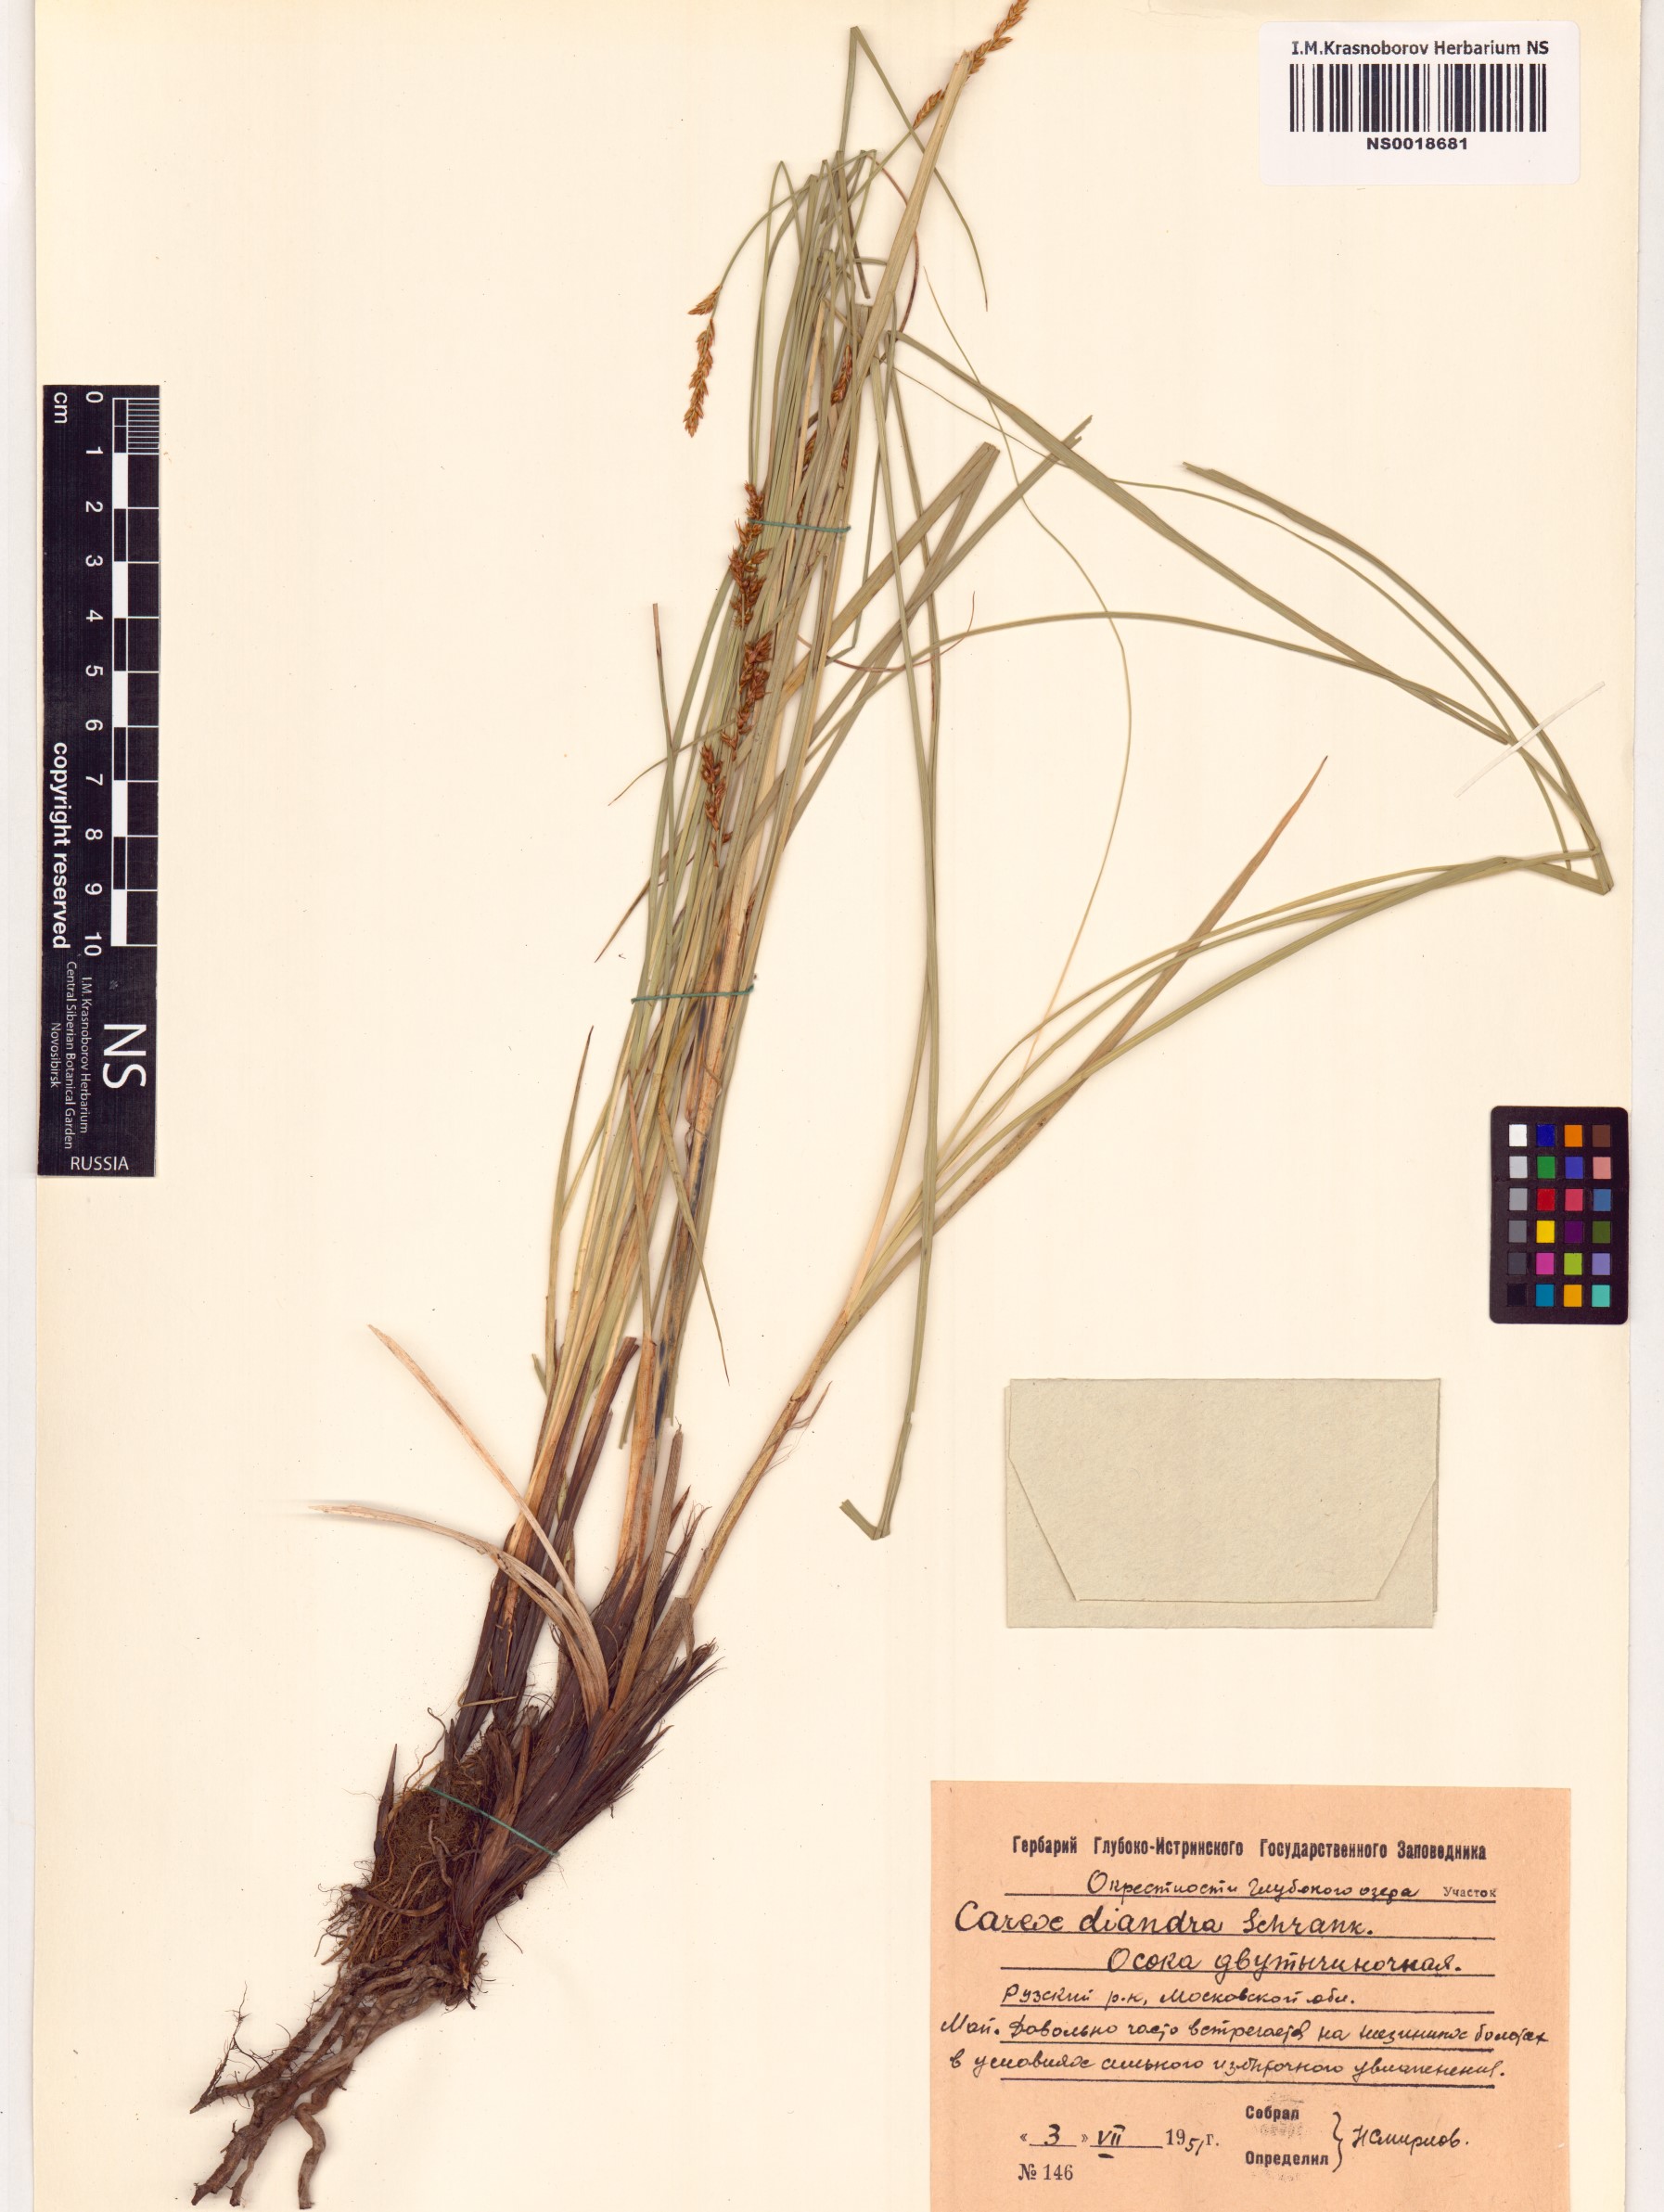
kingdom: Plantae
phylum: Tracheophyta
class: Liliopsida
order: Poales
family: Cyperaceae
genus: Carex
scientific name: Carex diandra
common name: Lesser tussock-sedge
